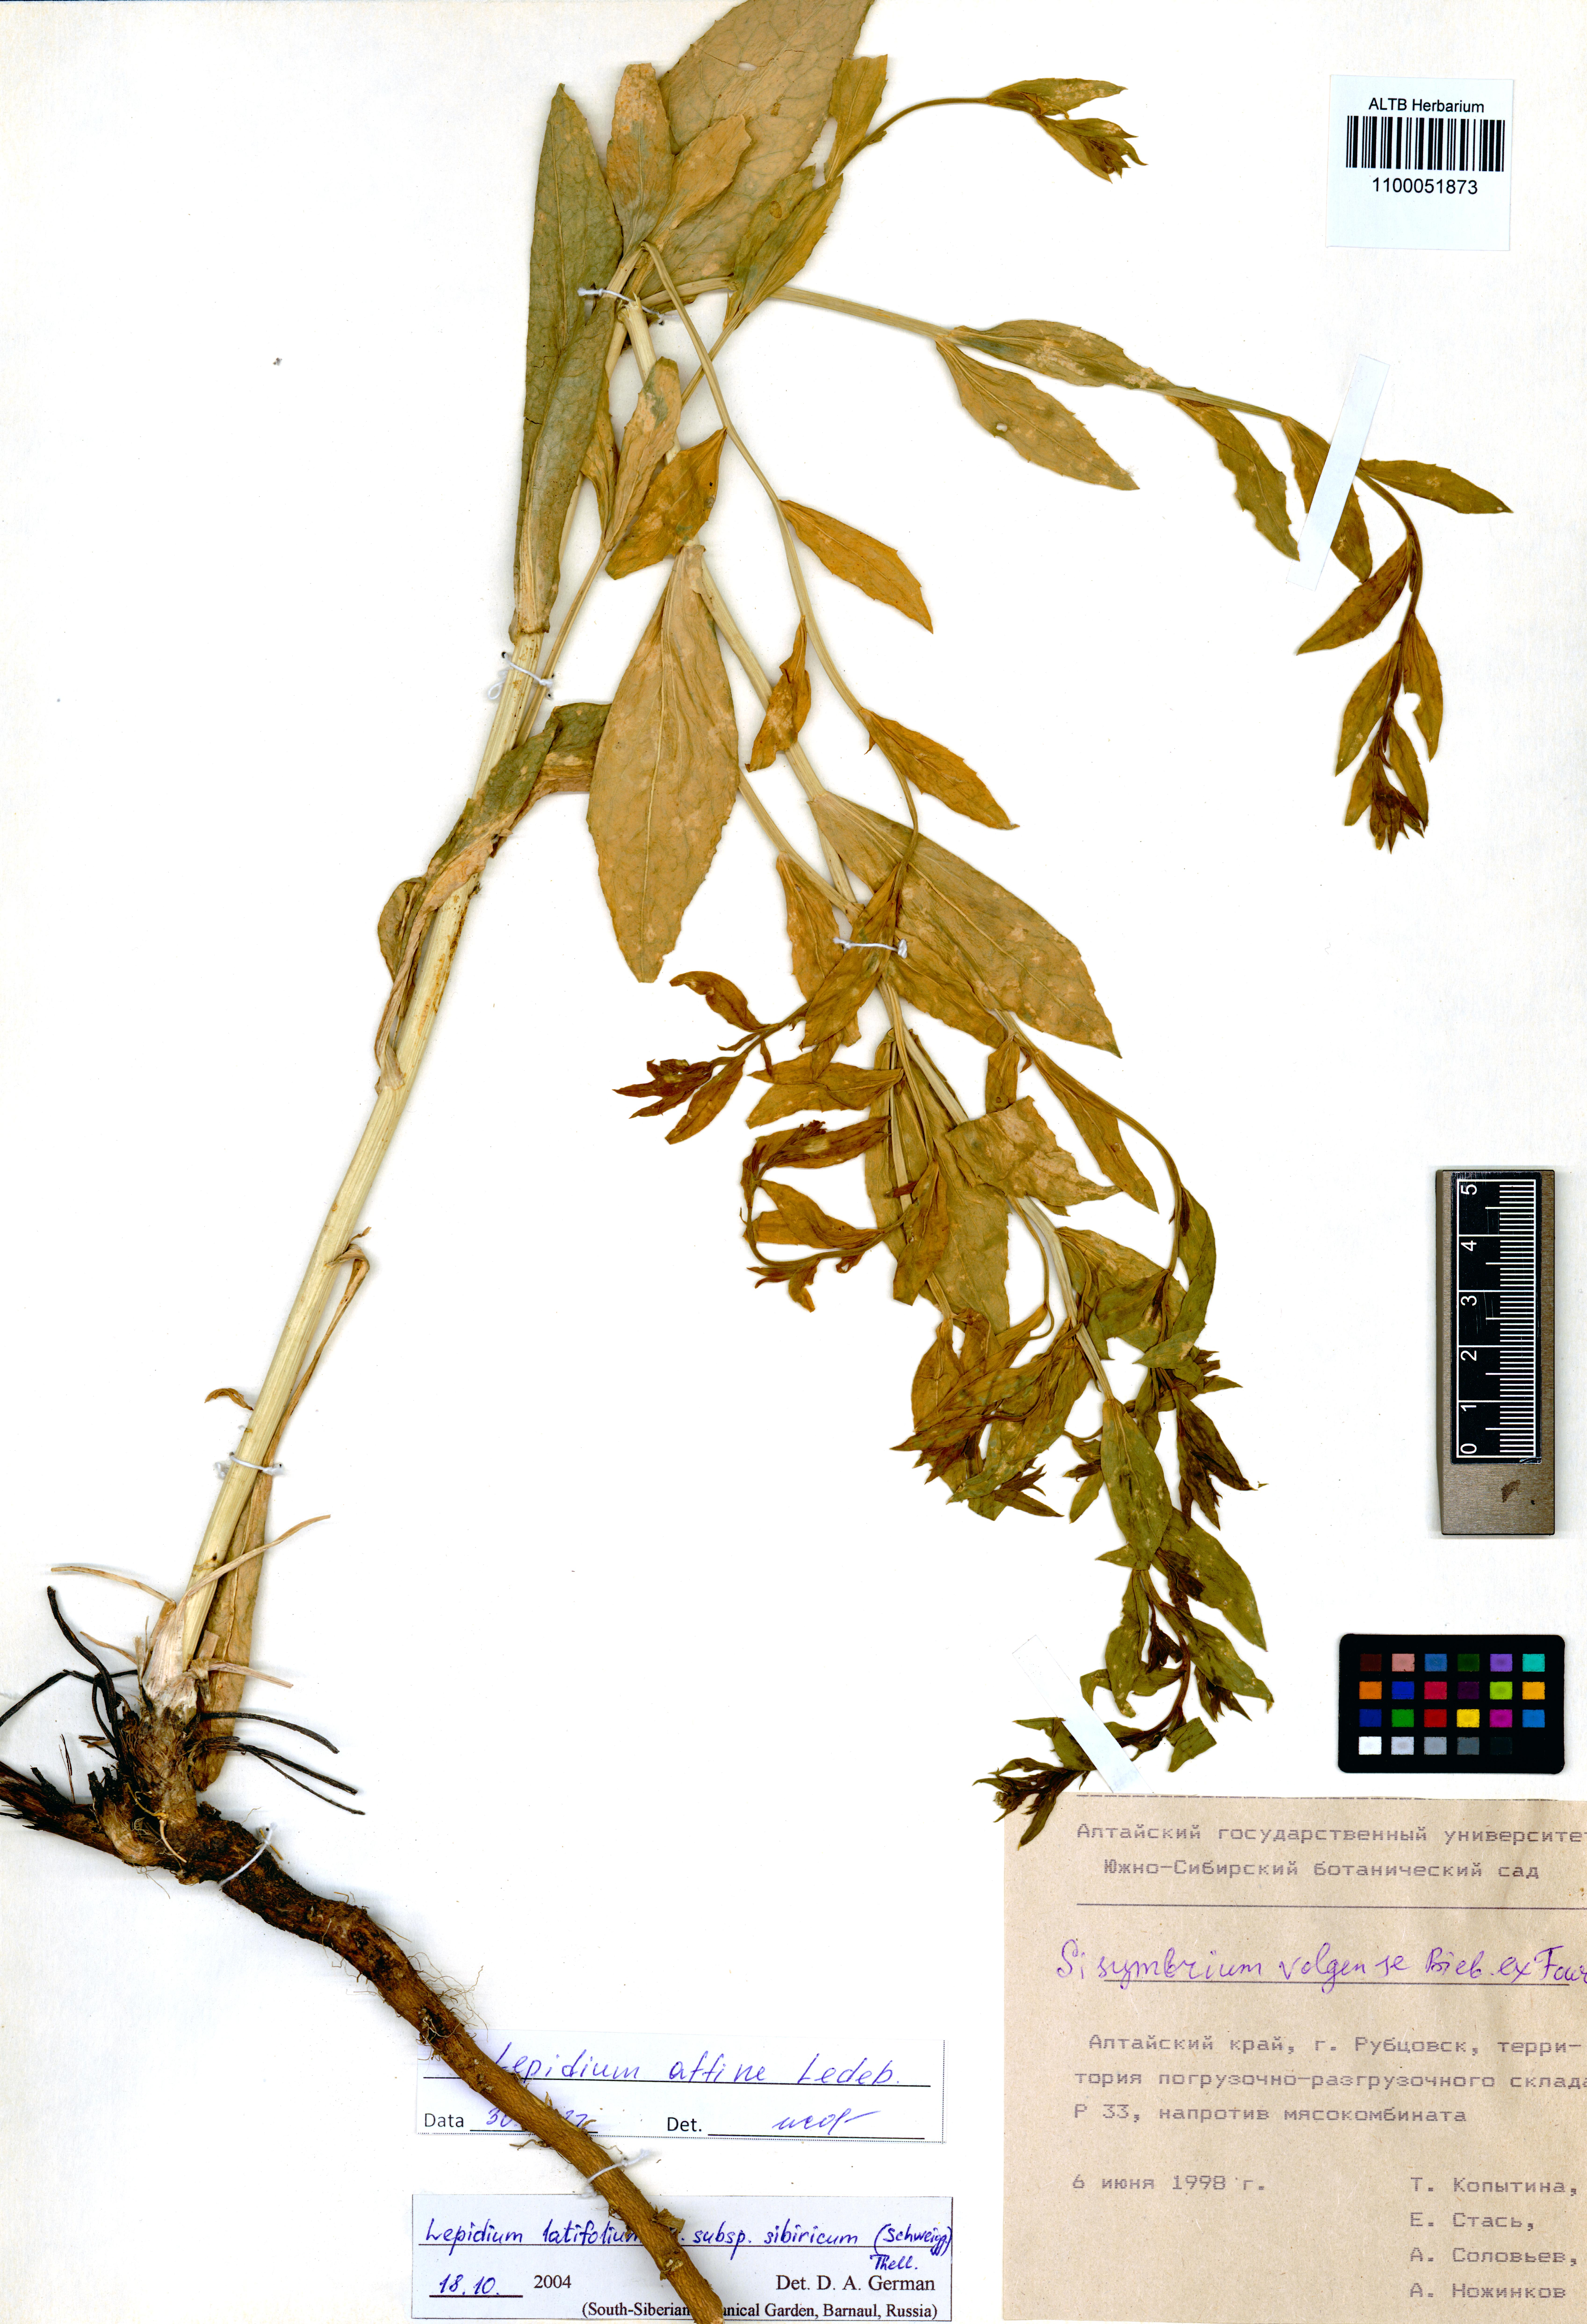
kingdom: Plantae
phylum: Tracheophyta
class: Magnoliopsida
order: Brassicales
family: Brassicaceae
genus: Lepidium
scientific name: Lepidium latifolium
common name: Dittander
